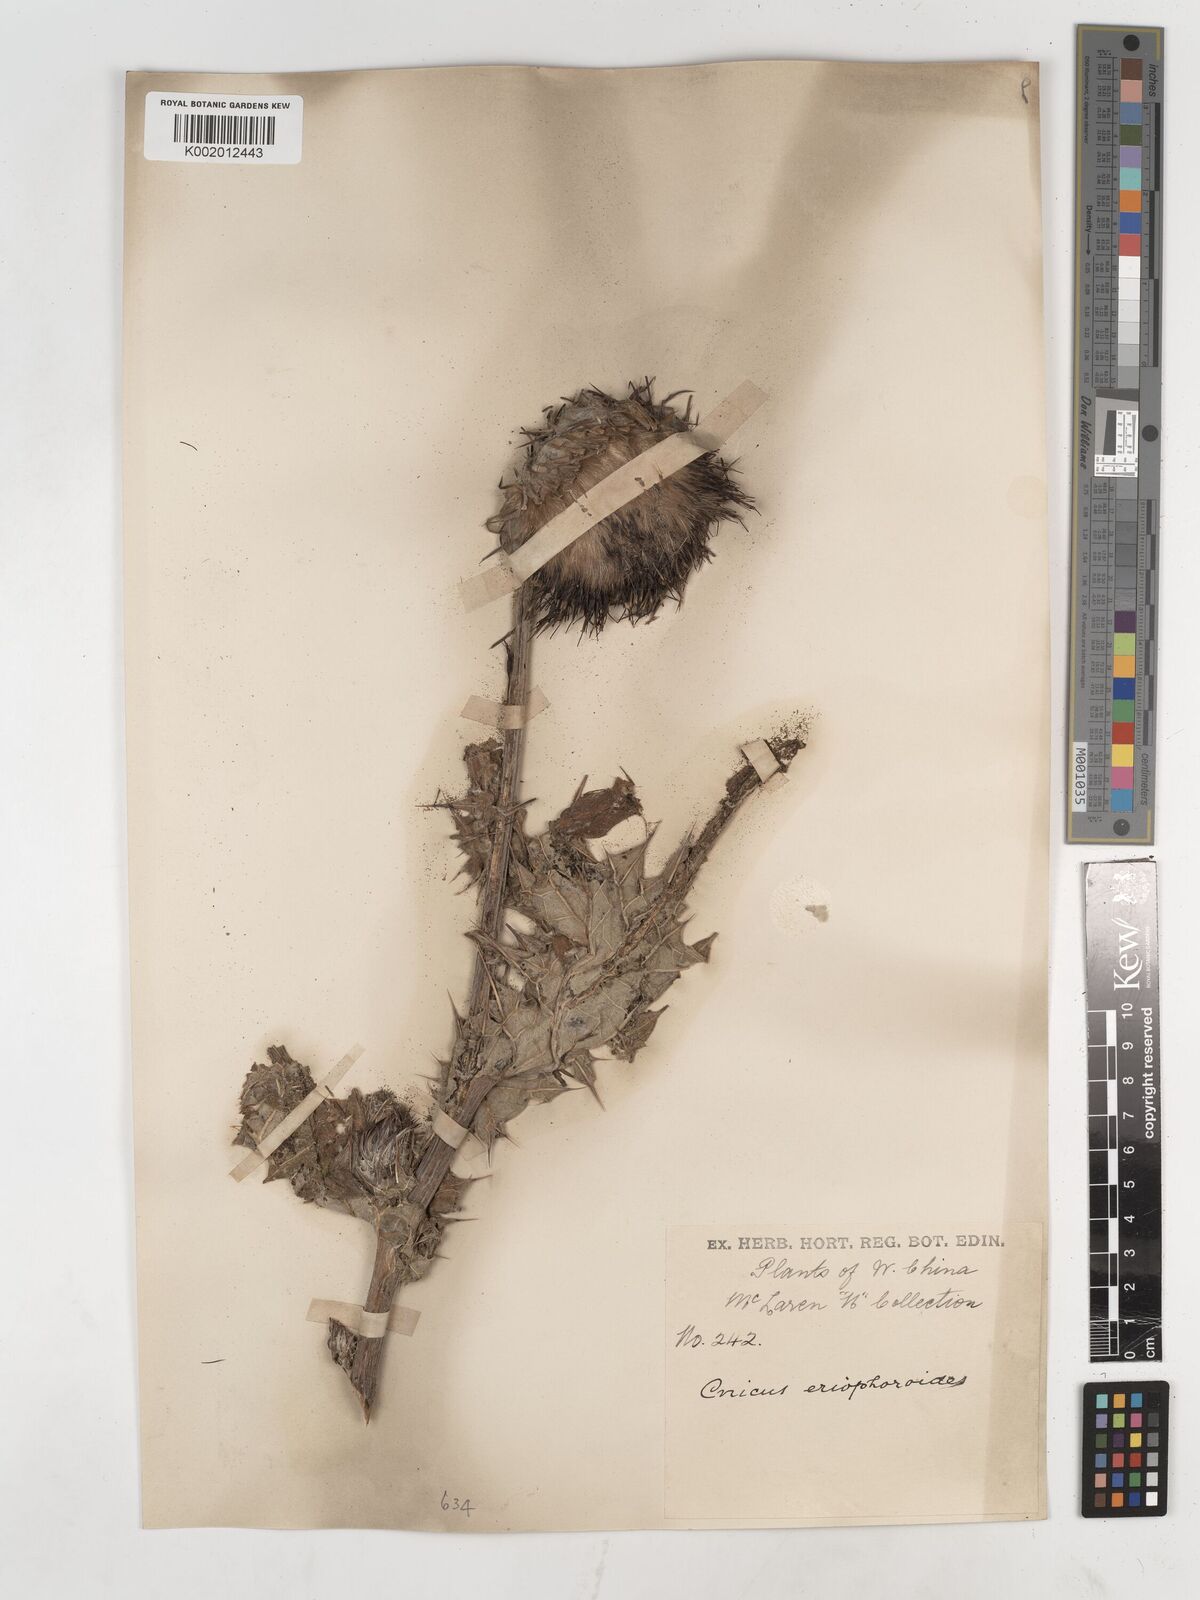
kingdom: Plantae
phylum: Tracheophyta
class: Magnoliopsida
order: Asterales
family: Asteraceae
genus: Cirsium
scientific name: Cirsium chinense
